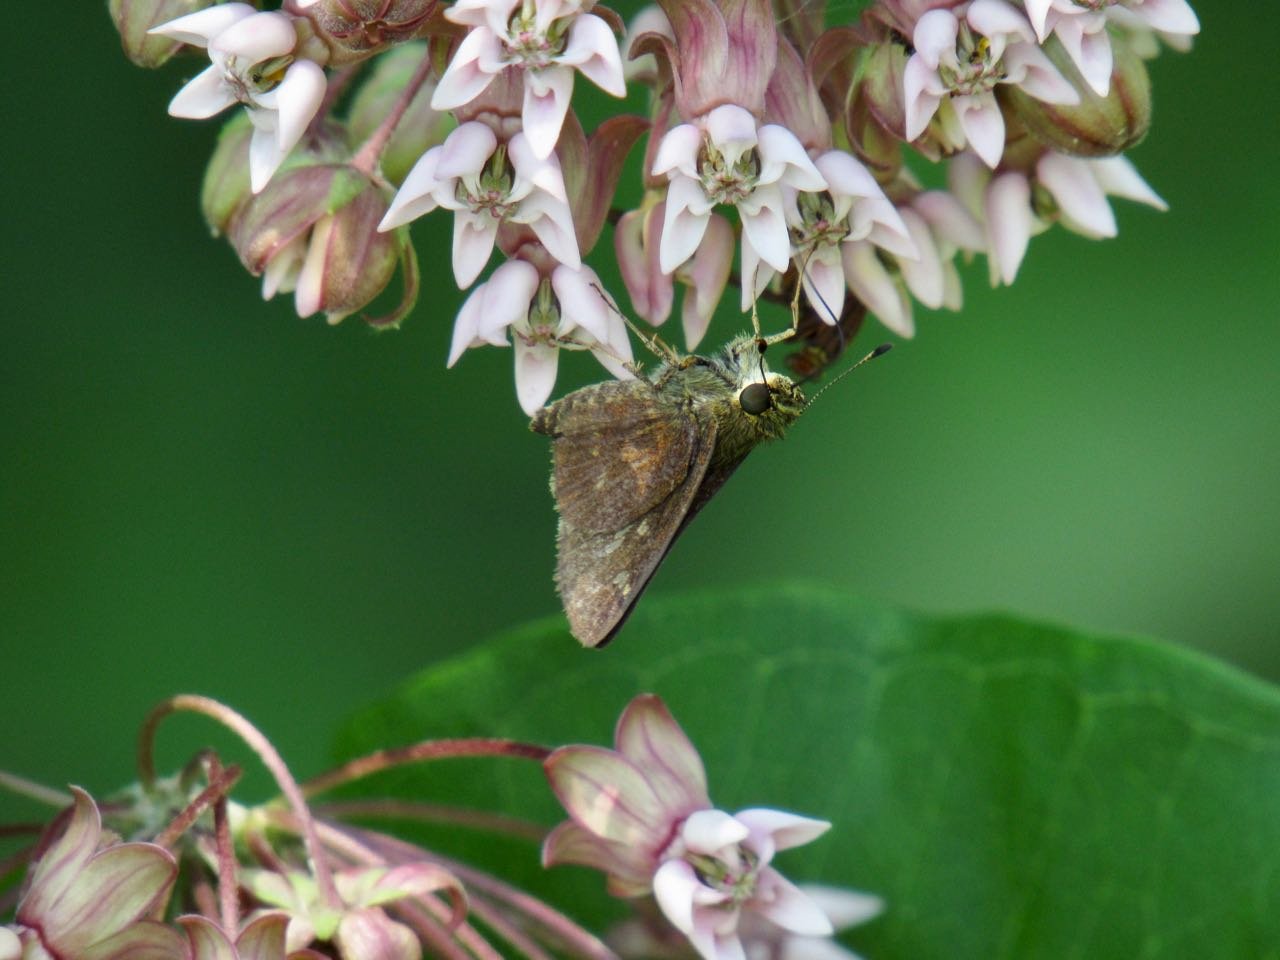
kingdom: Animalia
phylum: Arthropoda
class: Insecta
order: Lepidoptera
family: Hesperiidae
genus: Vernia
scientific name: Vernia verna
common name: Little Glassywing
